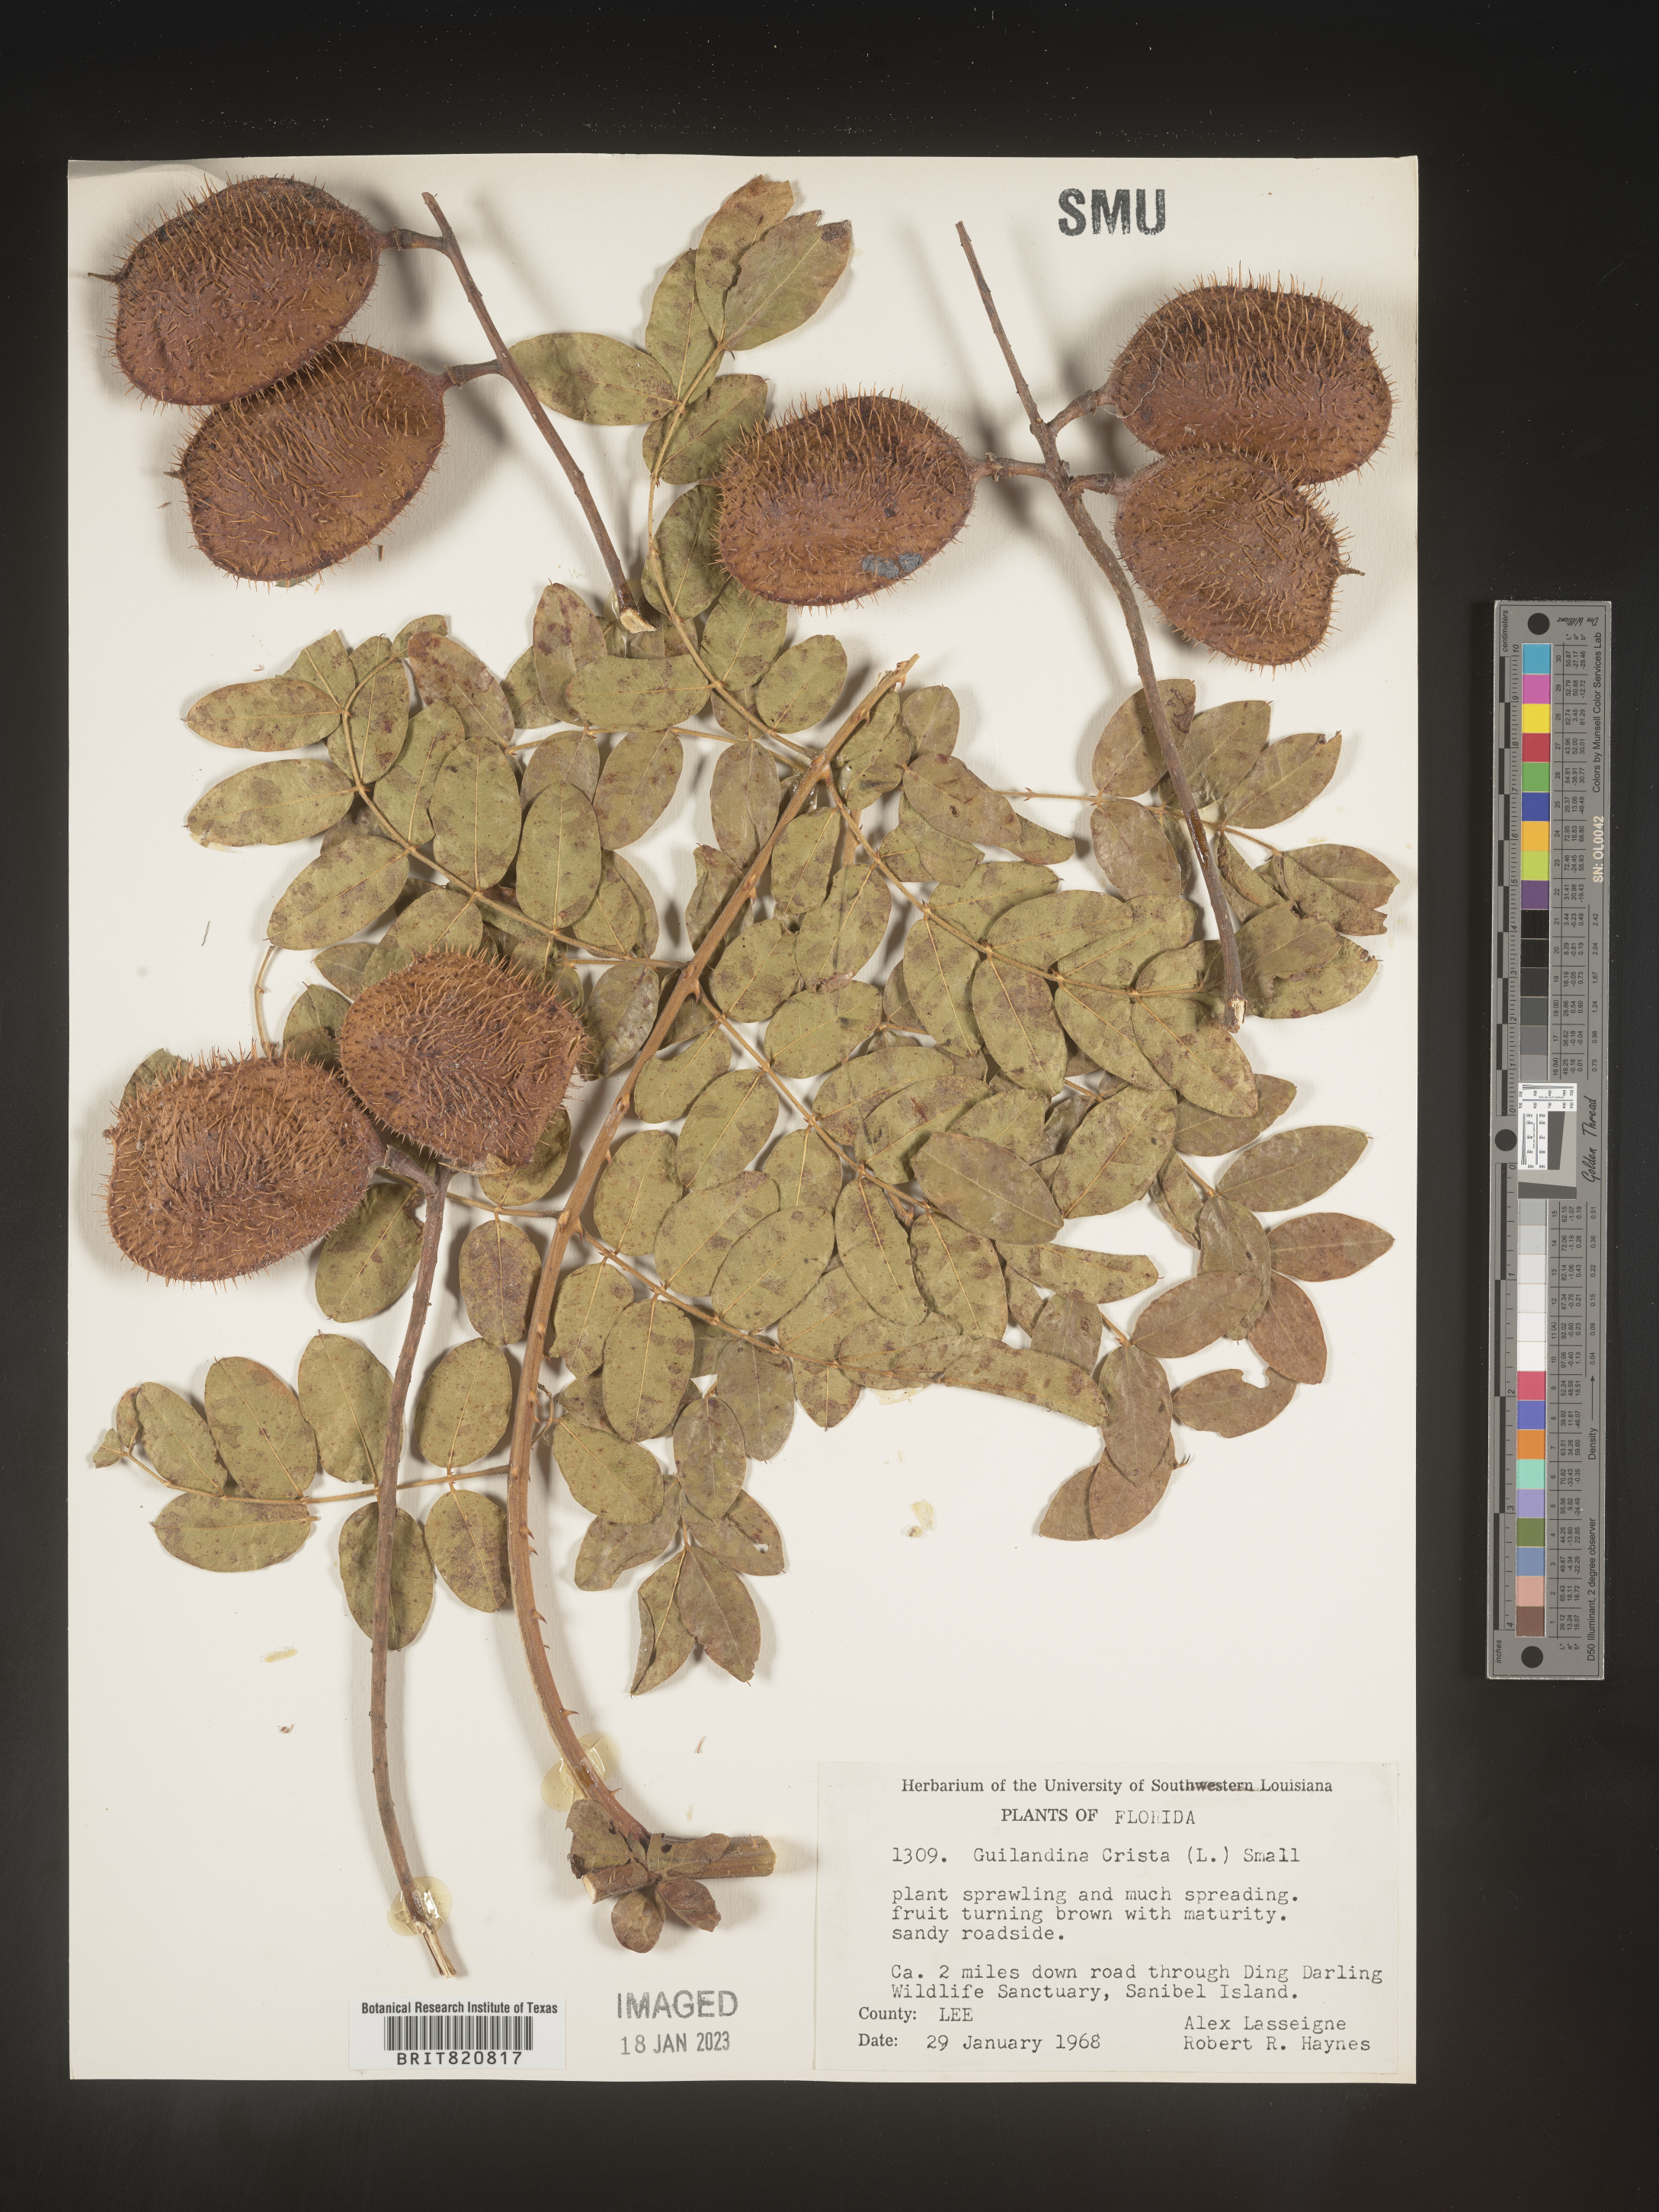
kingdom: Plantae
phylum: Tracheophyta
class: Magnoliopsida
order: Fabales
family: Fabaceae
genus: Guilandina
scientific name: Guilandina
